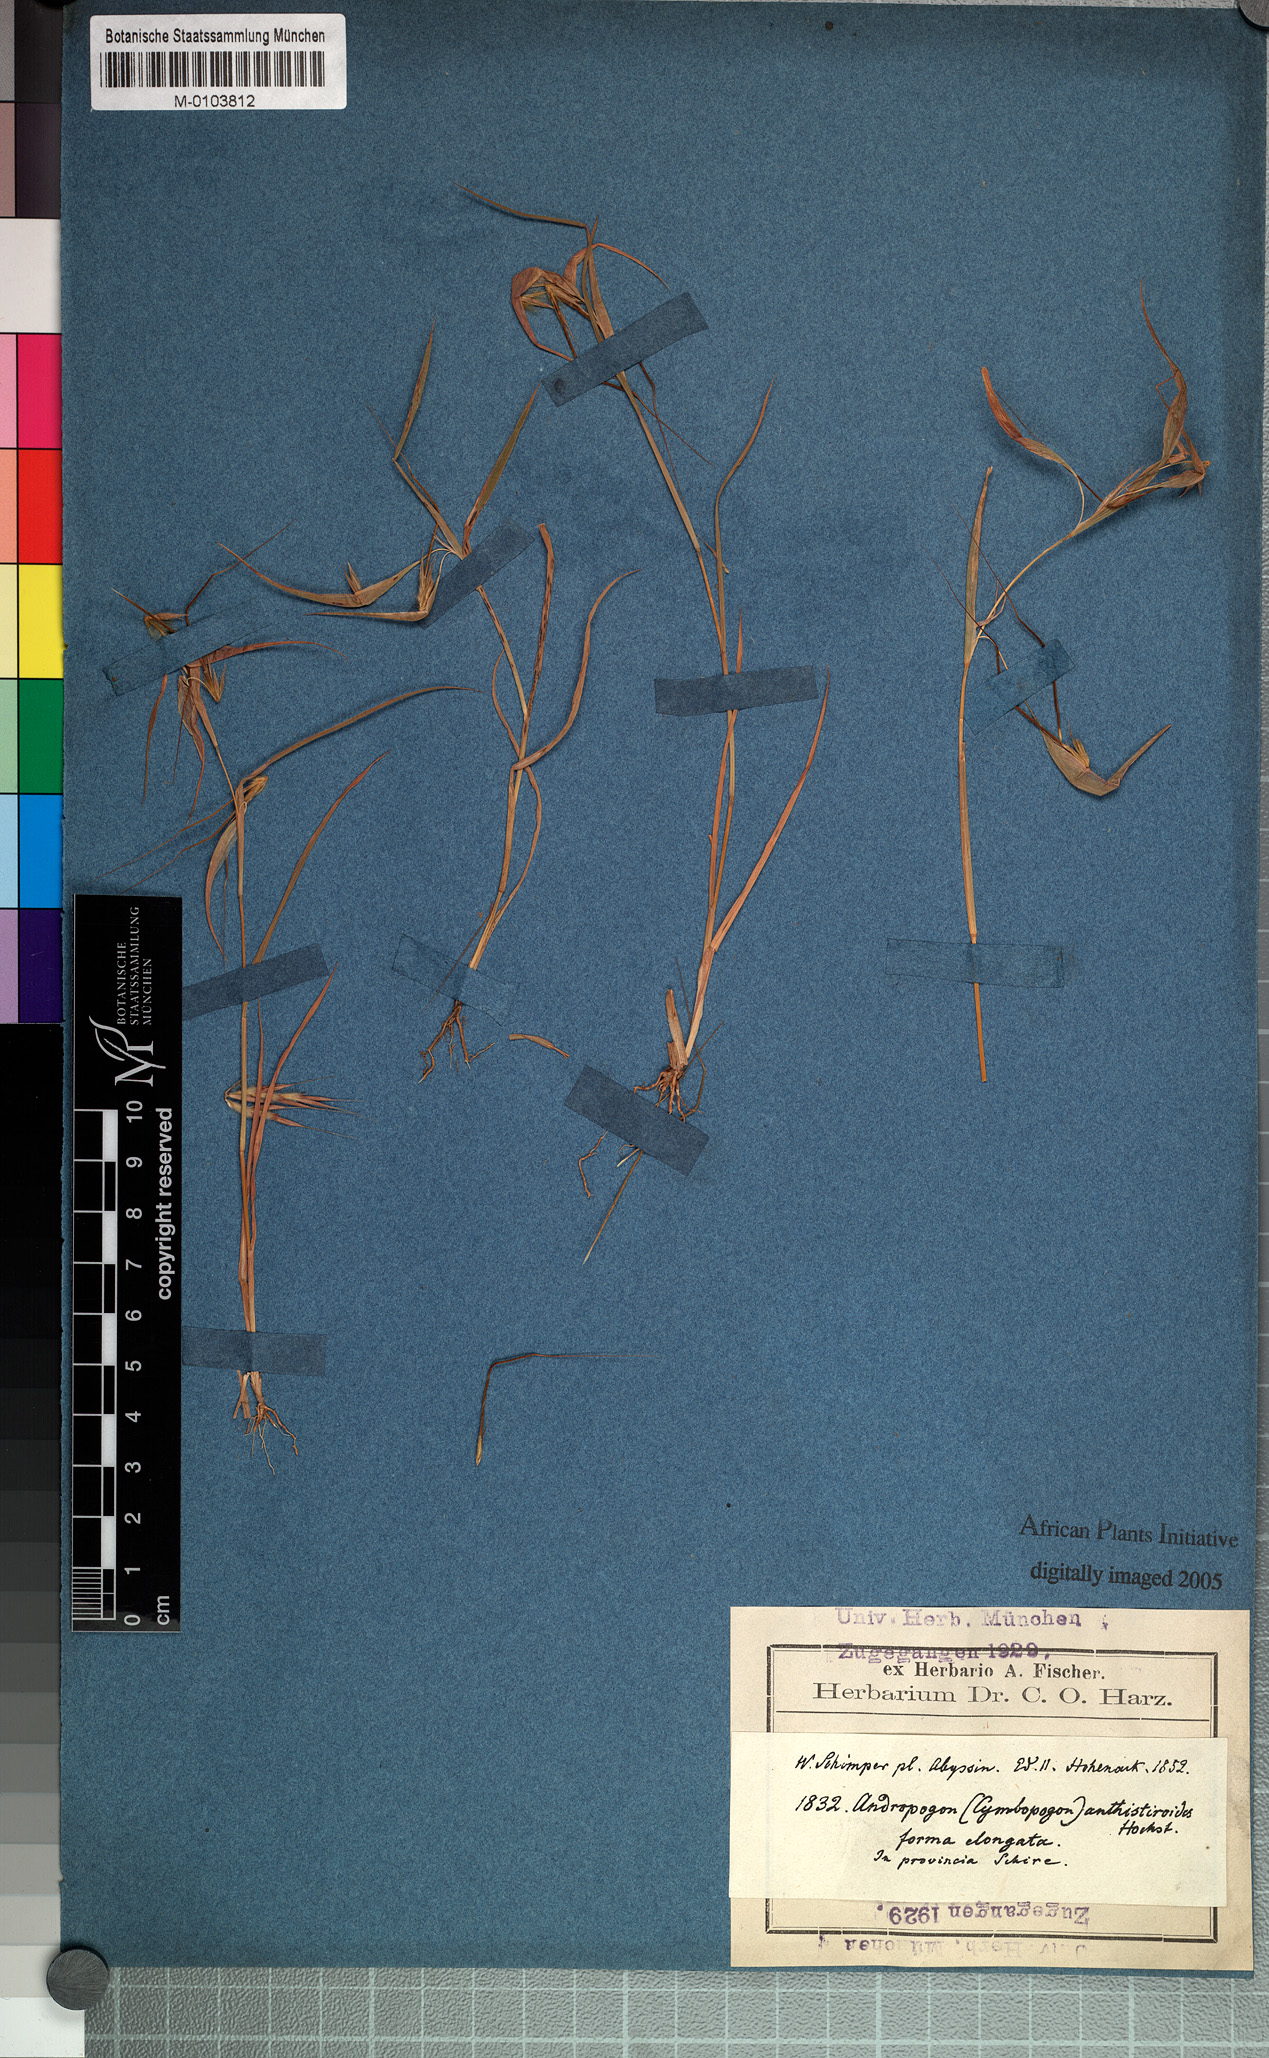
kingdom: Plantae
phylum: Tracheophyta
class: Liliopsida
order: Poales
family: Poaceae
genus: Hyparrhenia
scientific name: Hyparrhenia anthistirioides
